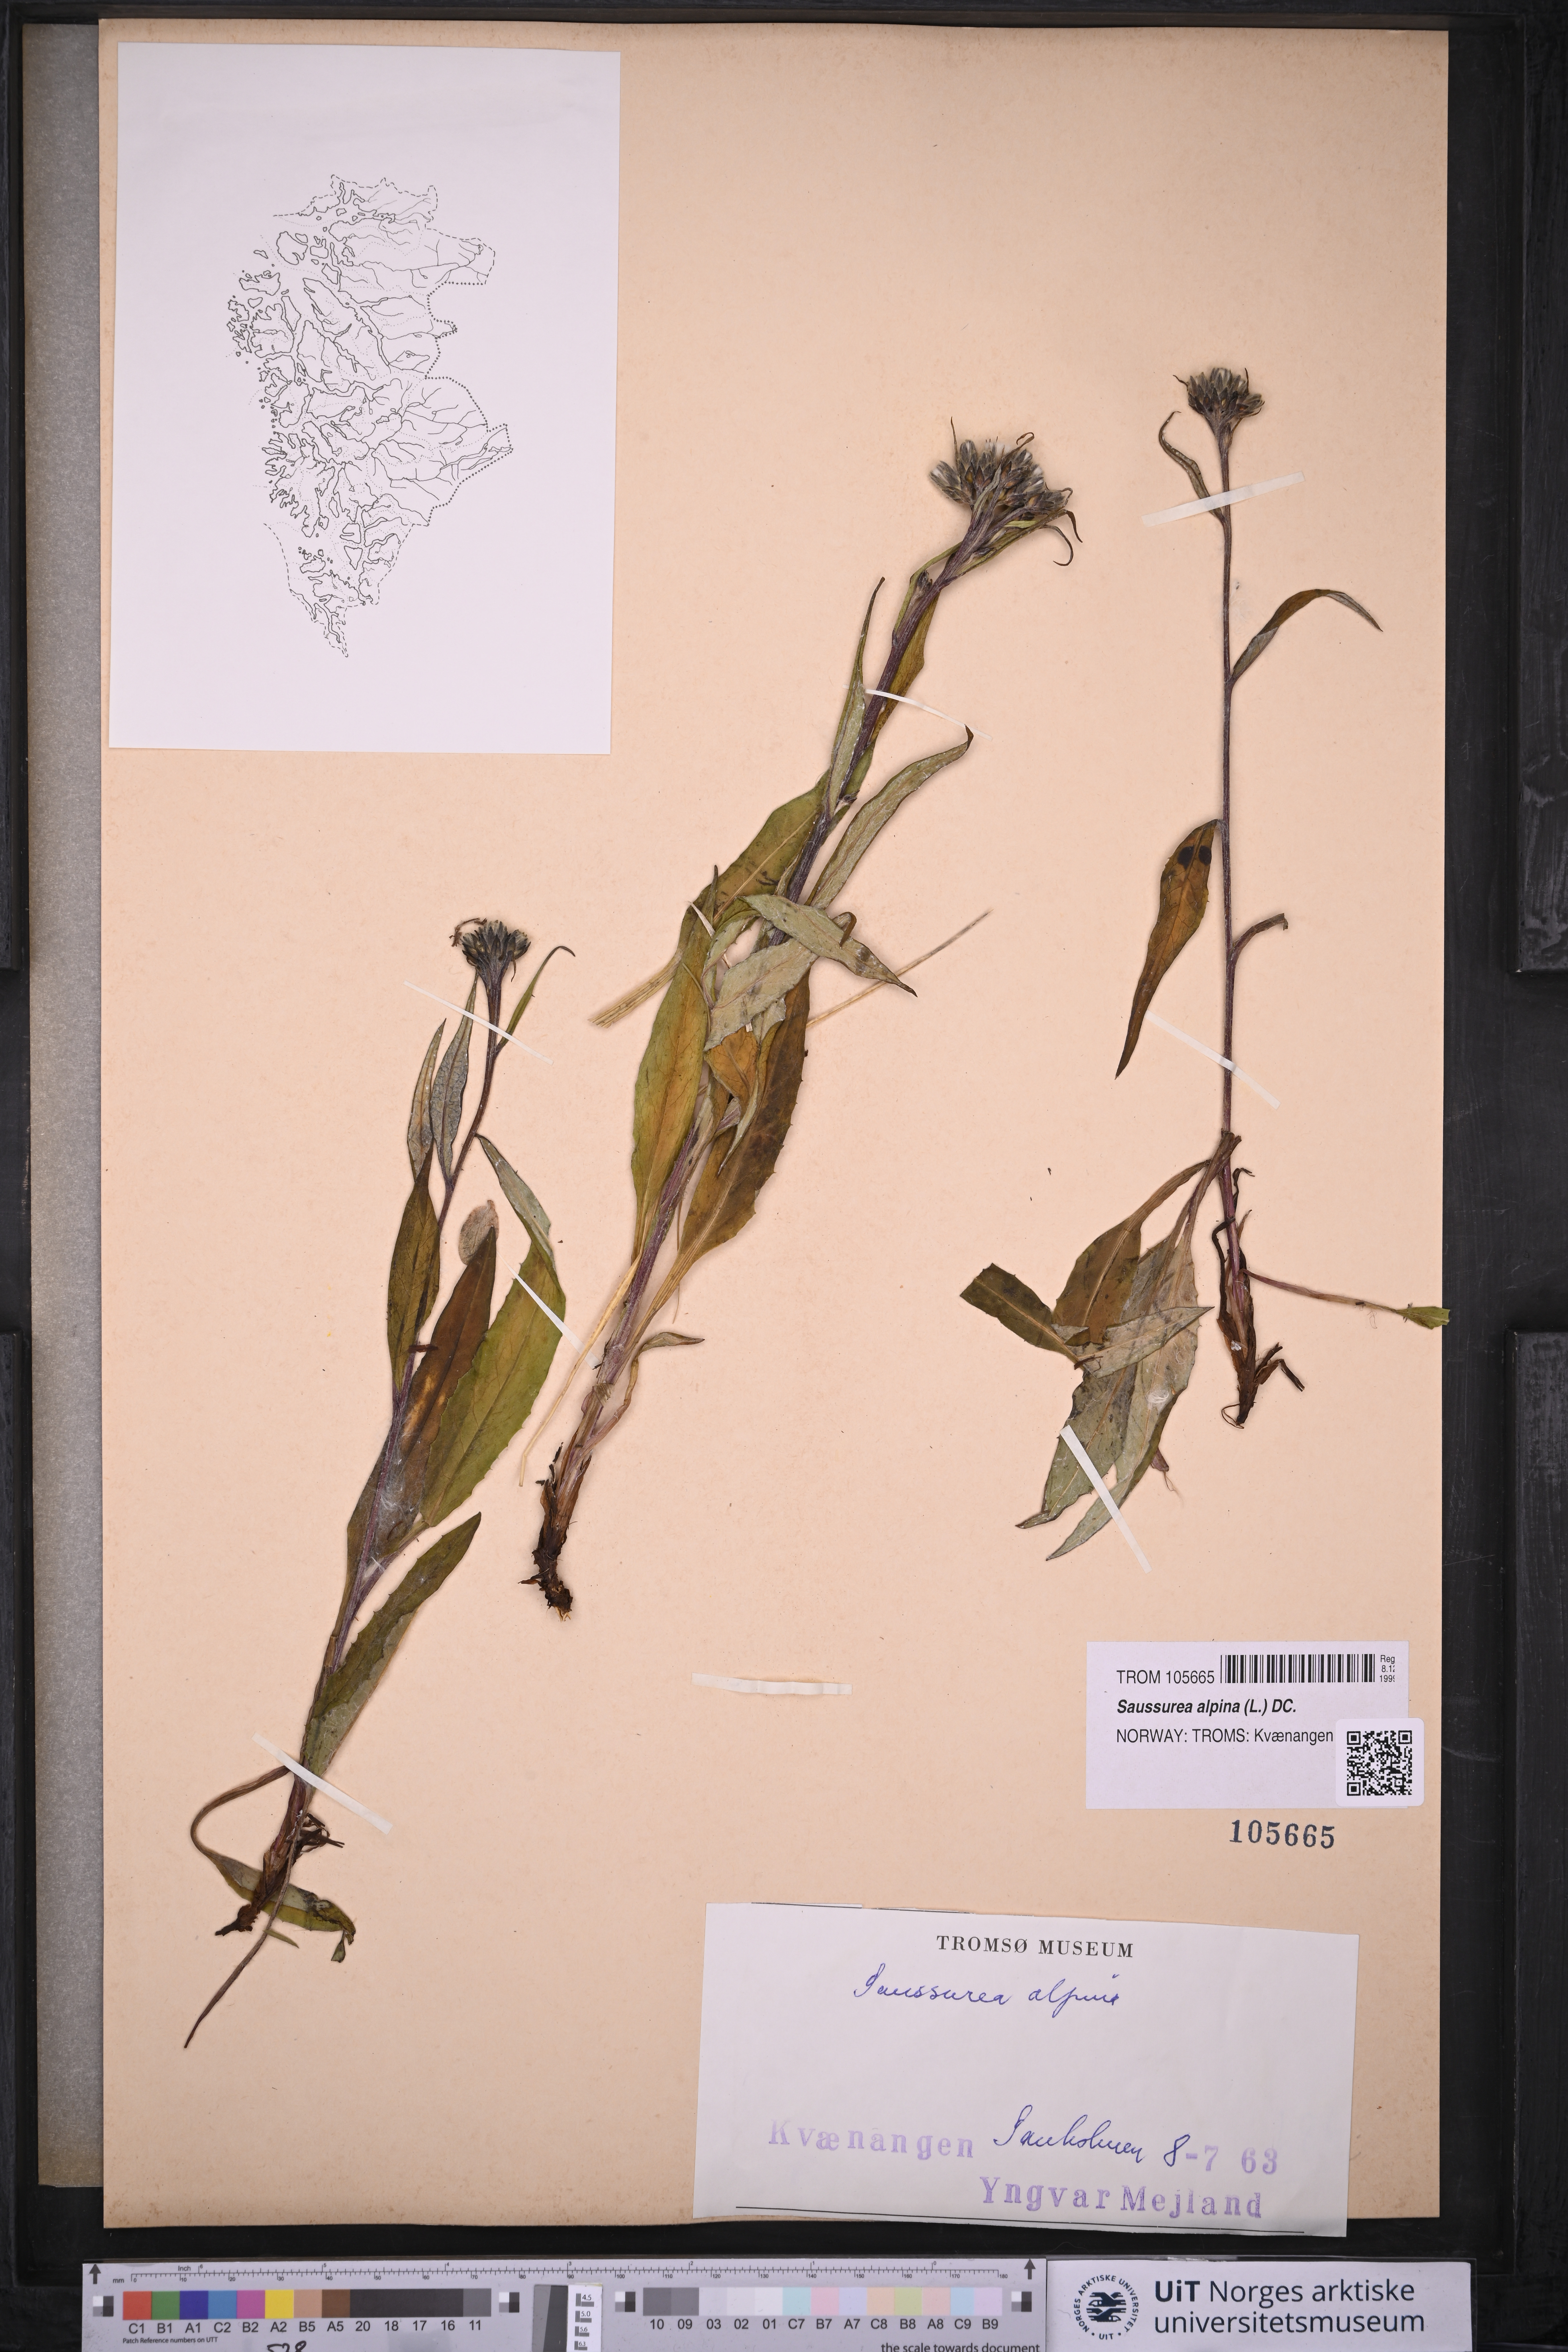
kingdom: Plantae
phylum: Tracheophyta
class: Magnoliopsida
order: Asterales
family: Asteraceae
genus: Saussurea
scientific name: Saussurea alpina
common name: Alpine saw-wort
